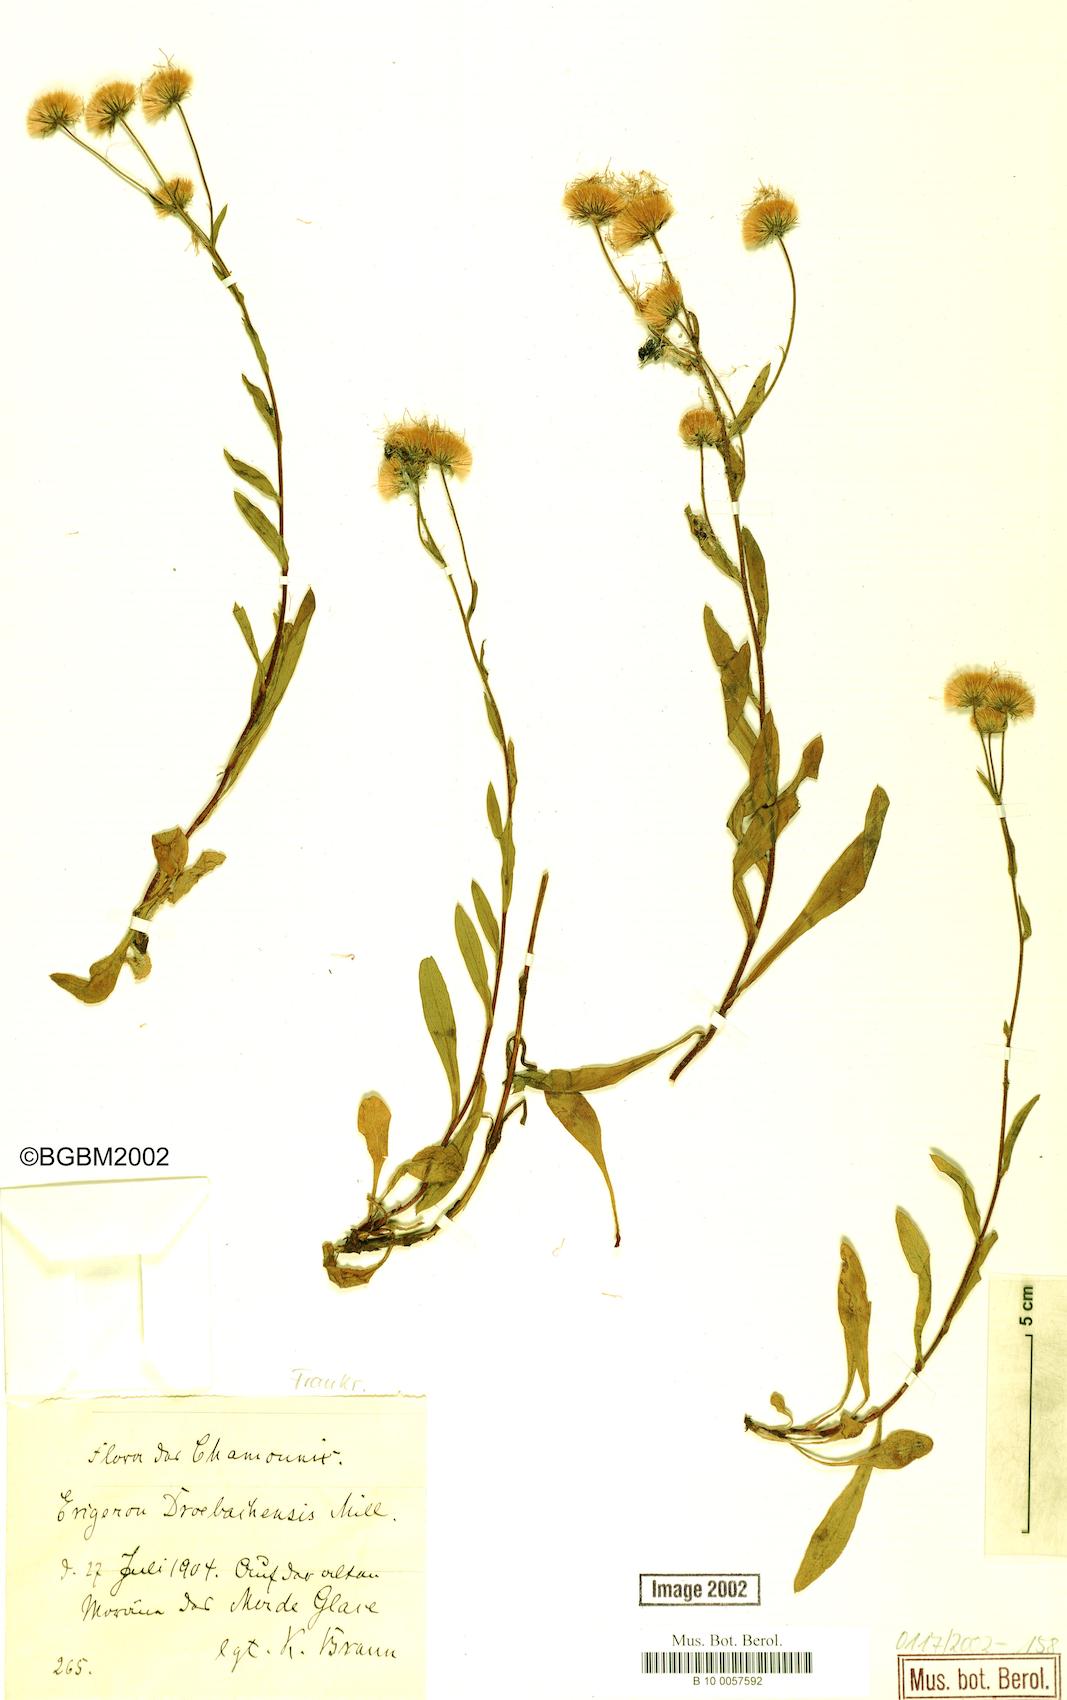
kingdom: Plantae
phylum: Tracheophyta
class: Magnoliopsida
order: Asterales
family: Asteraceae
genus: Erigeron
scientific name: Erigeron acris
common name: Blue fleabane
